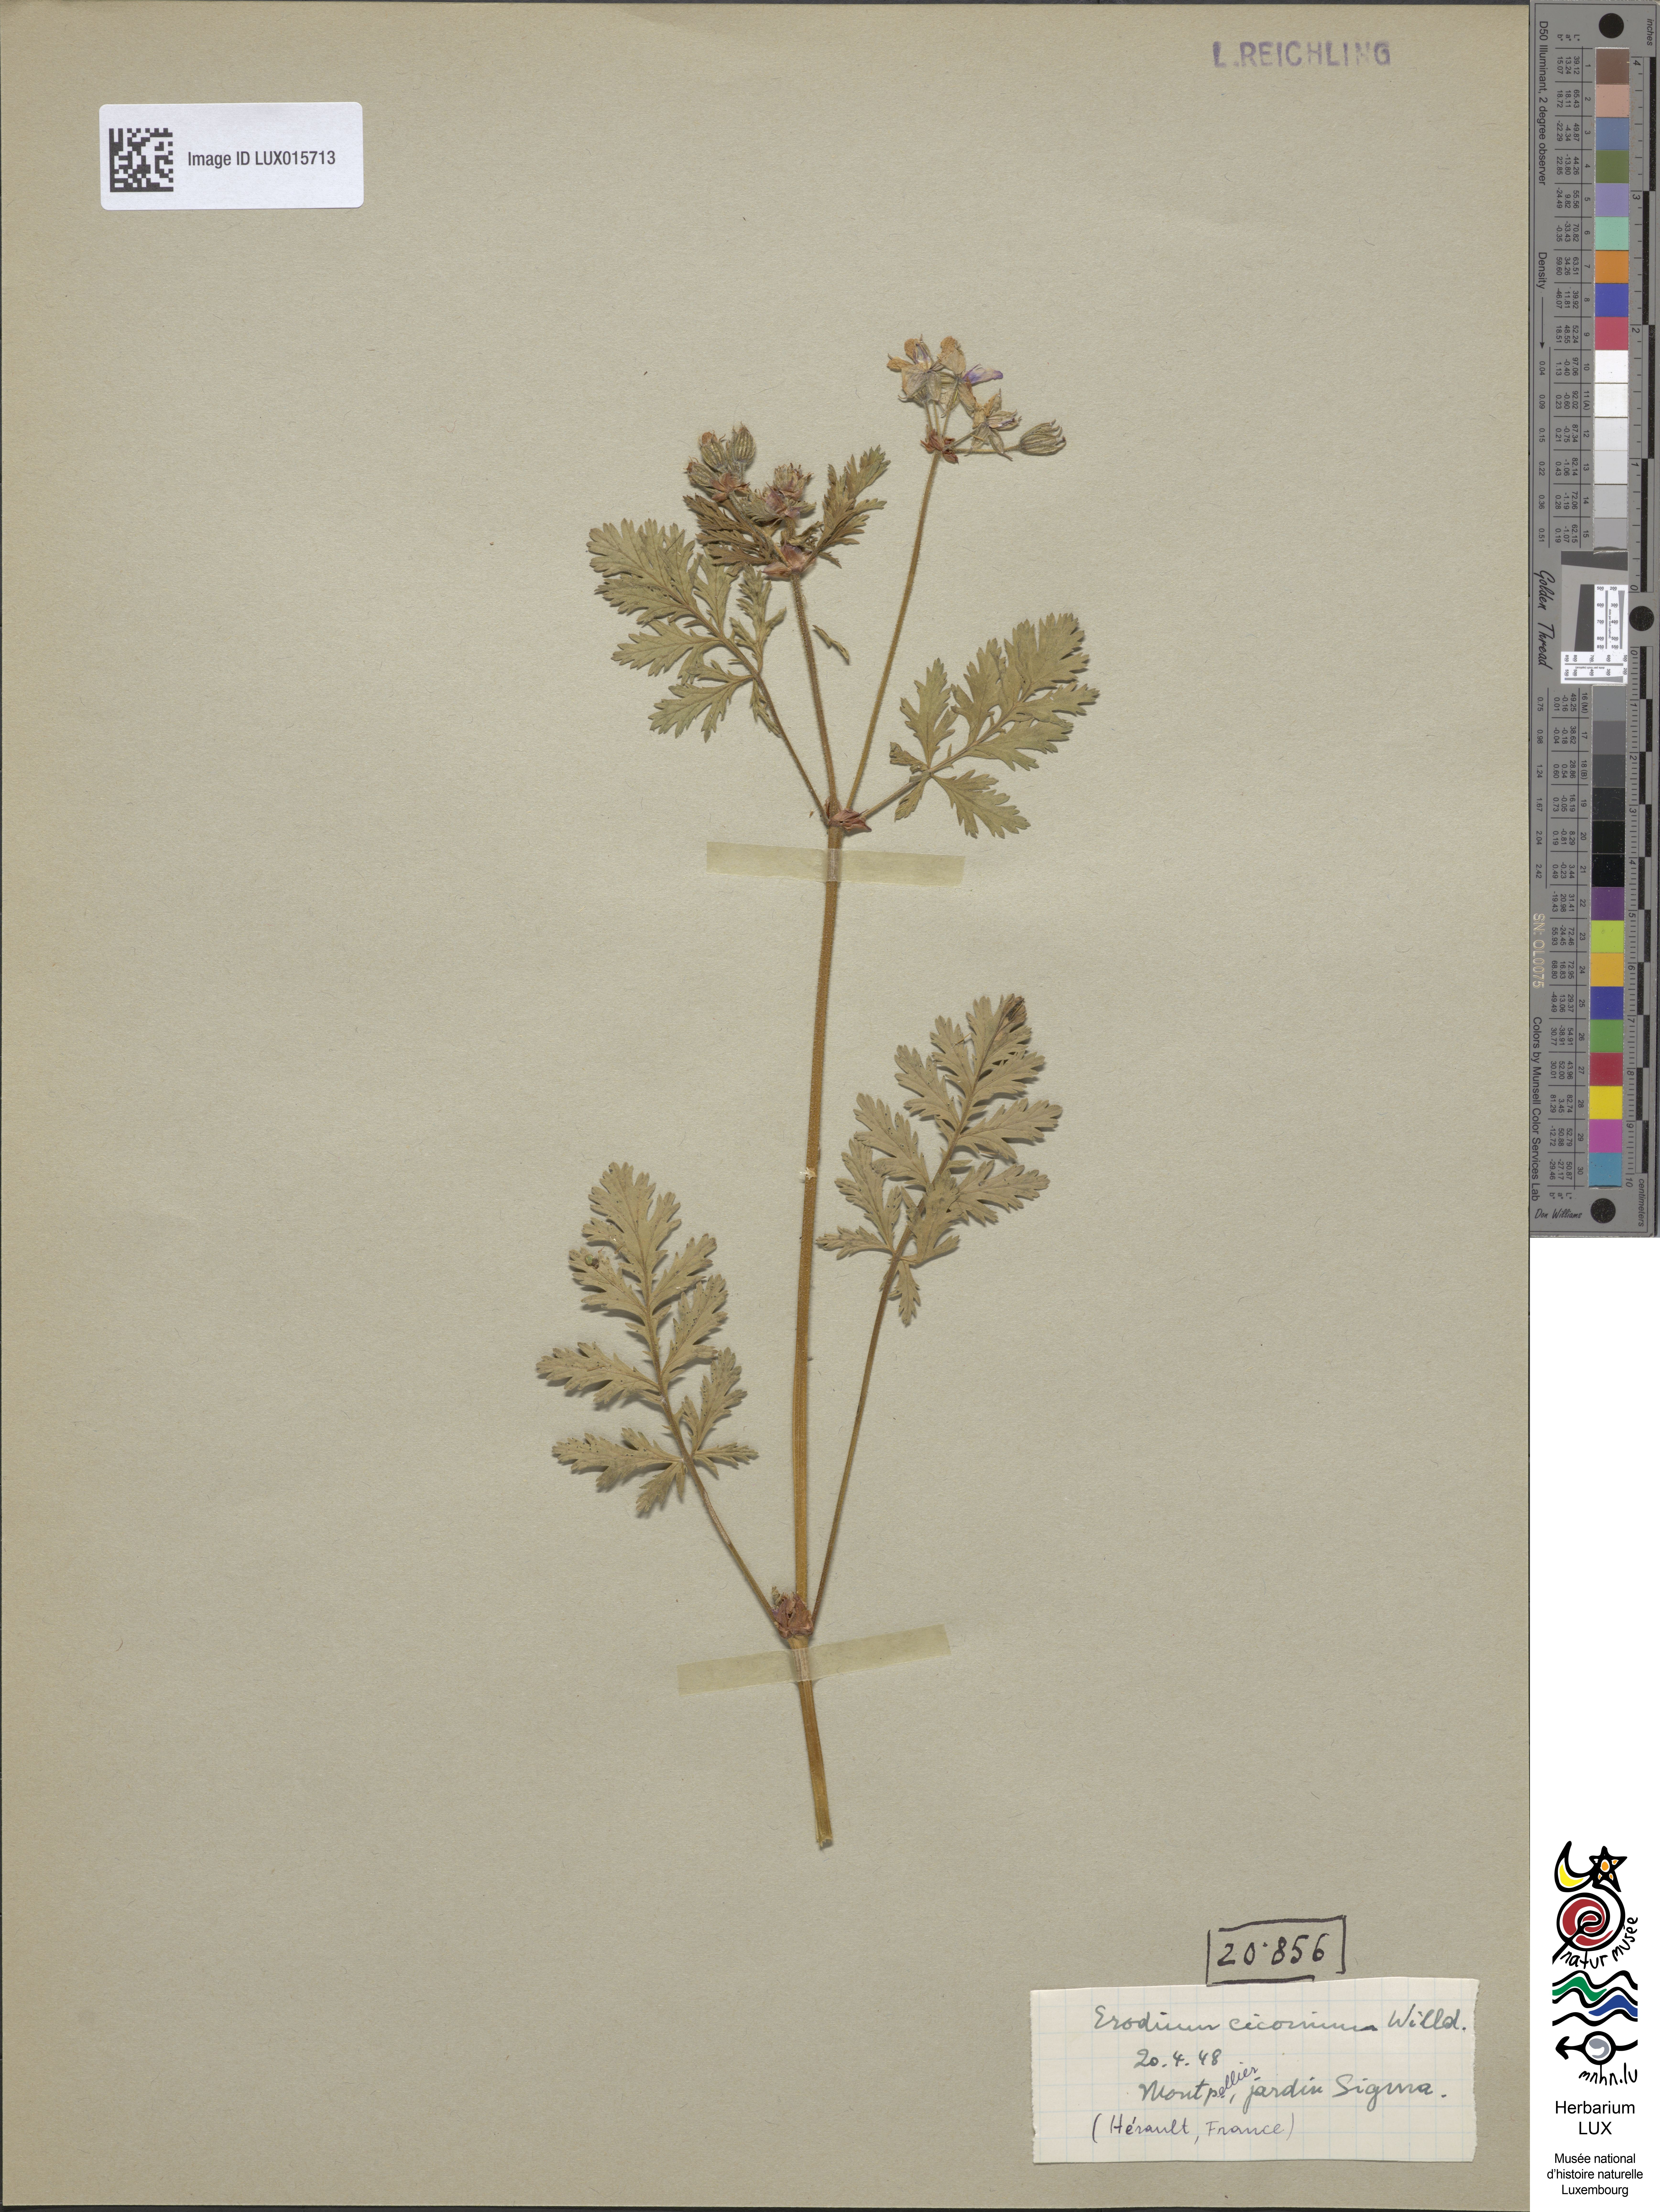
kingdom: Plantae
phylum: Tracheophyta
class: Magnoliopsida
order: Geraniales
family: Geraniaceae
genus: Erodium
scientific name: Erodium ciconium
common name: Common stork's bill
